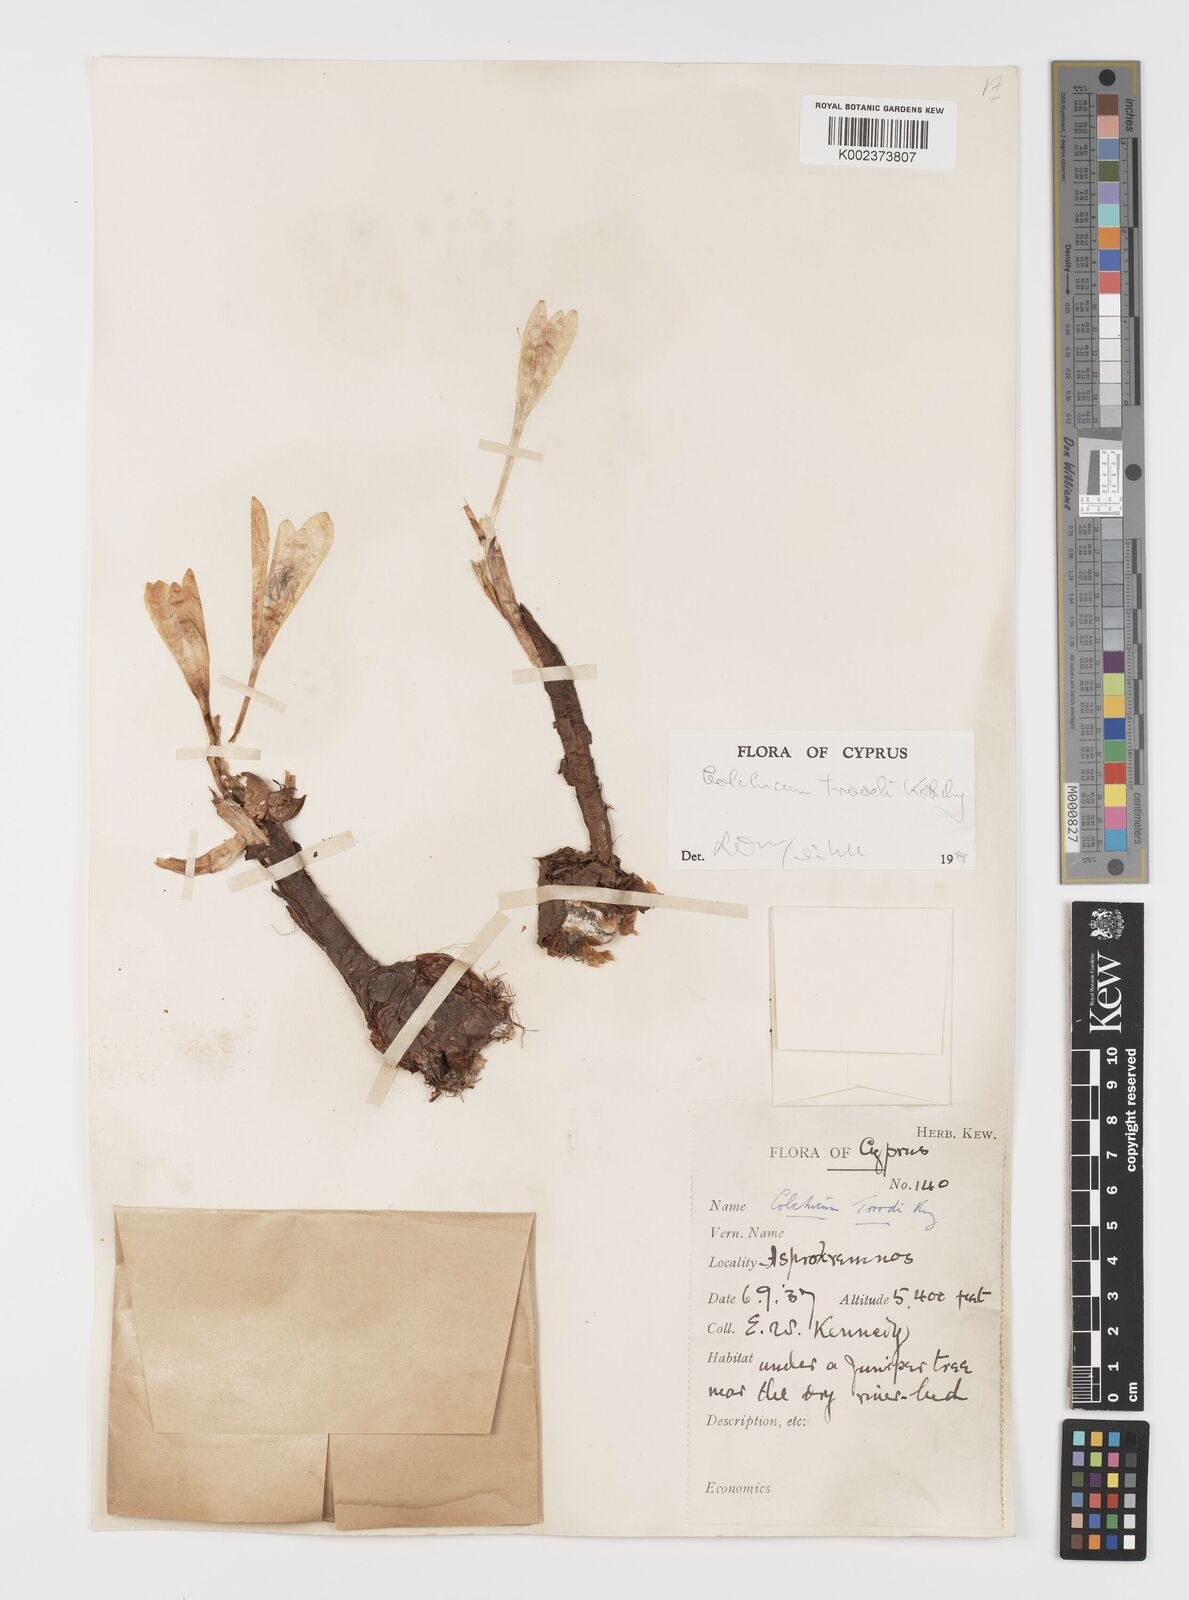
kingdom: Plantae
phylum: Tracheophyta
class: Liliopsida
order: Liliales
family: Colchicaceae
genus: Colchicum
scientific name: Colchicum troodi
